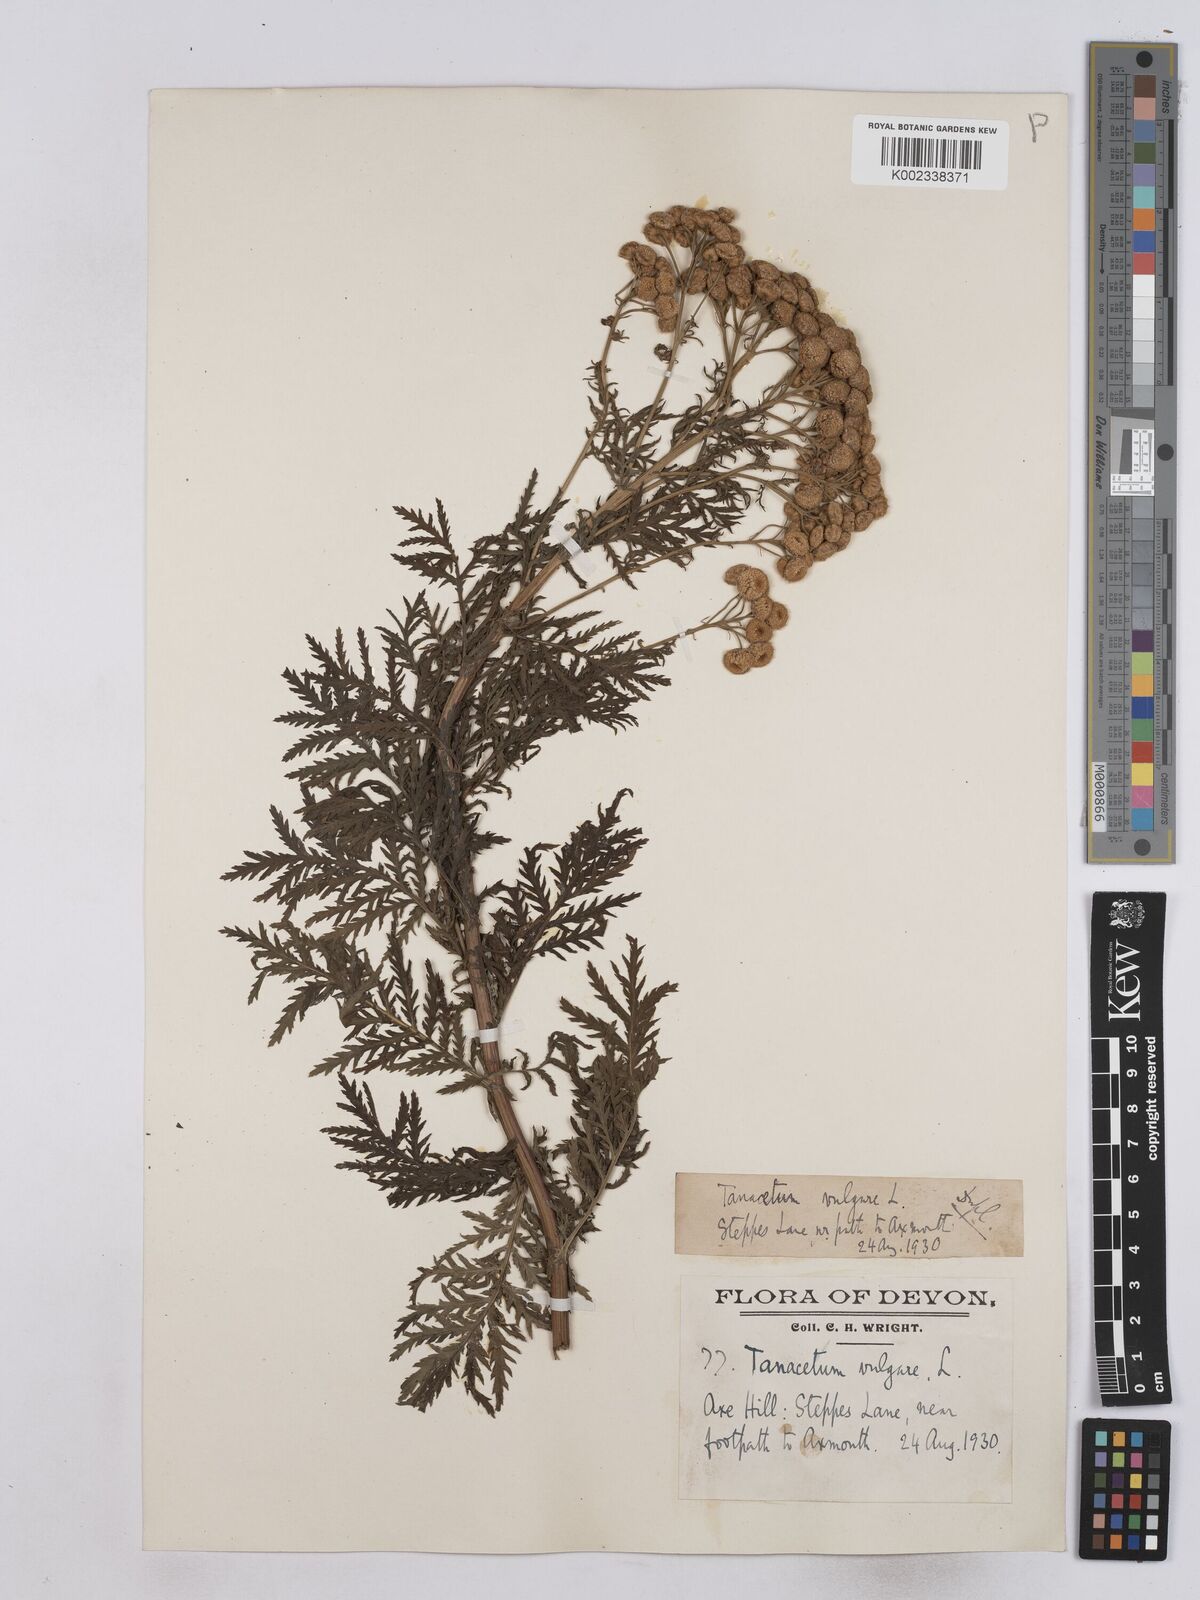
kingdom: Plantae
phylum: Tracheophyta
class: Magnoliopsida
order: Asterales
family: Asteraceae
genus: Tanacetum
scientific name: Tanacetum vulgare
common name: Common tansy
